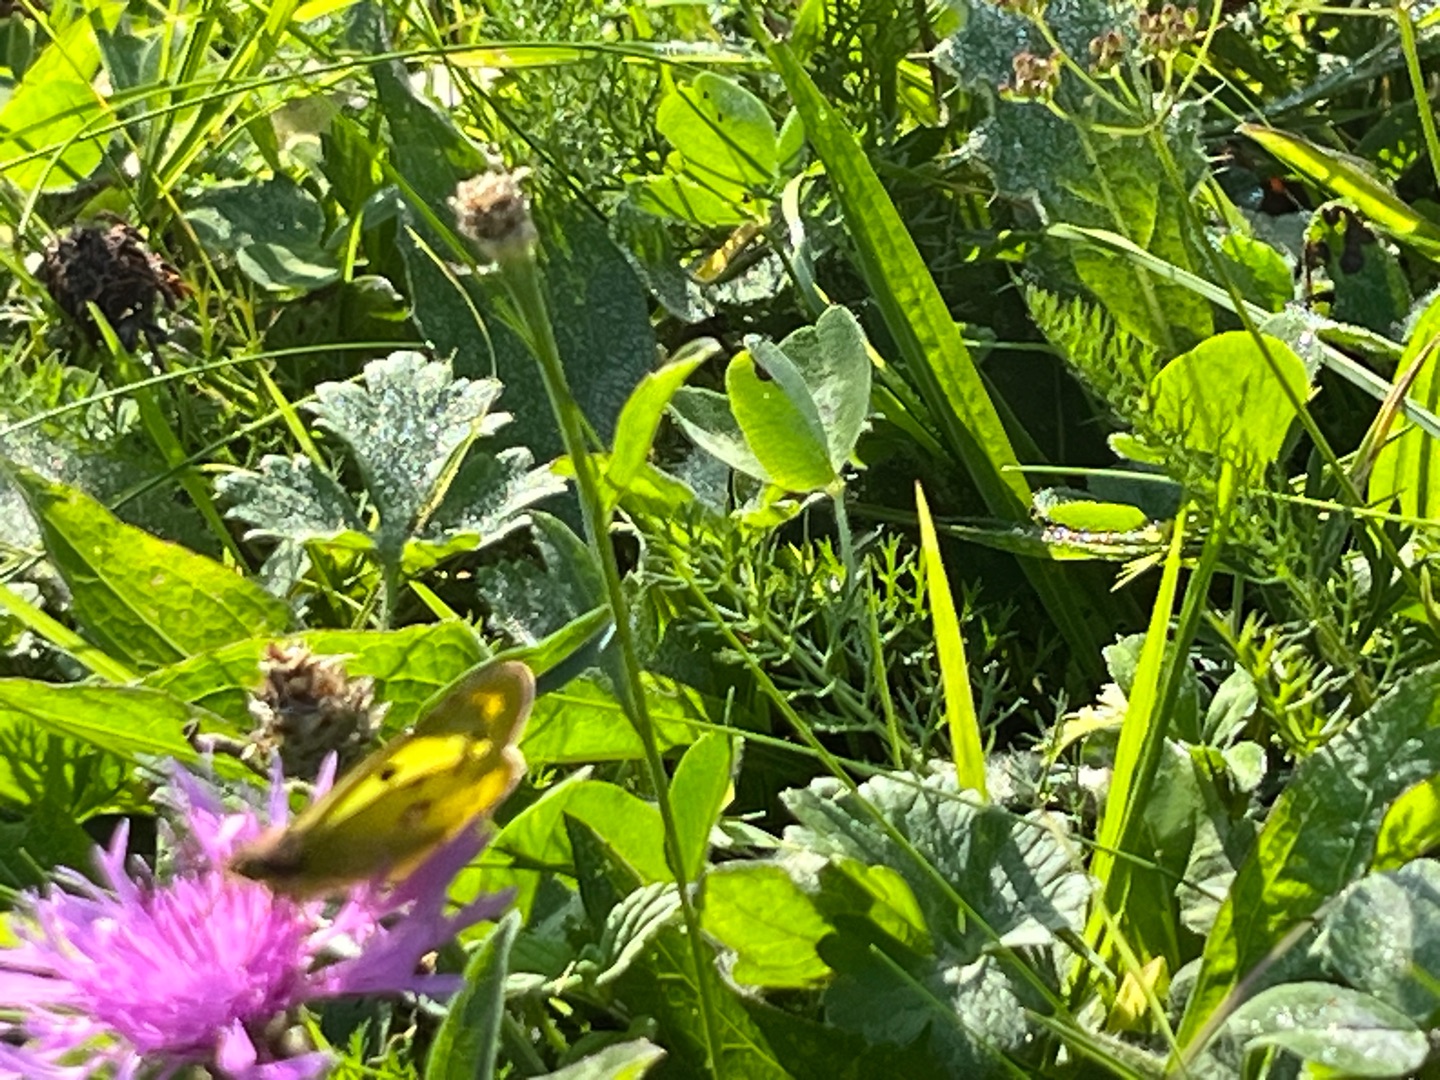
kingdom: Animalia
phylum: Arthropoda
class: Insecta
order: Lepidoptera
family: Pieridae
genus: Colias
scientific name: Colias hyale
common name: Gul høsommerfugl
